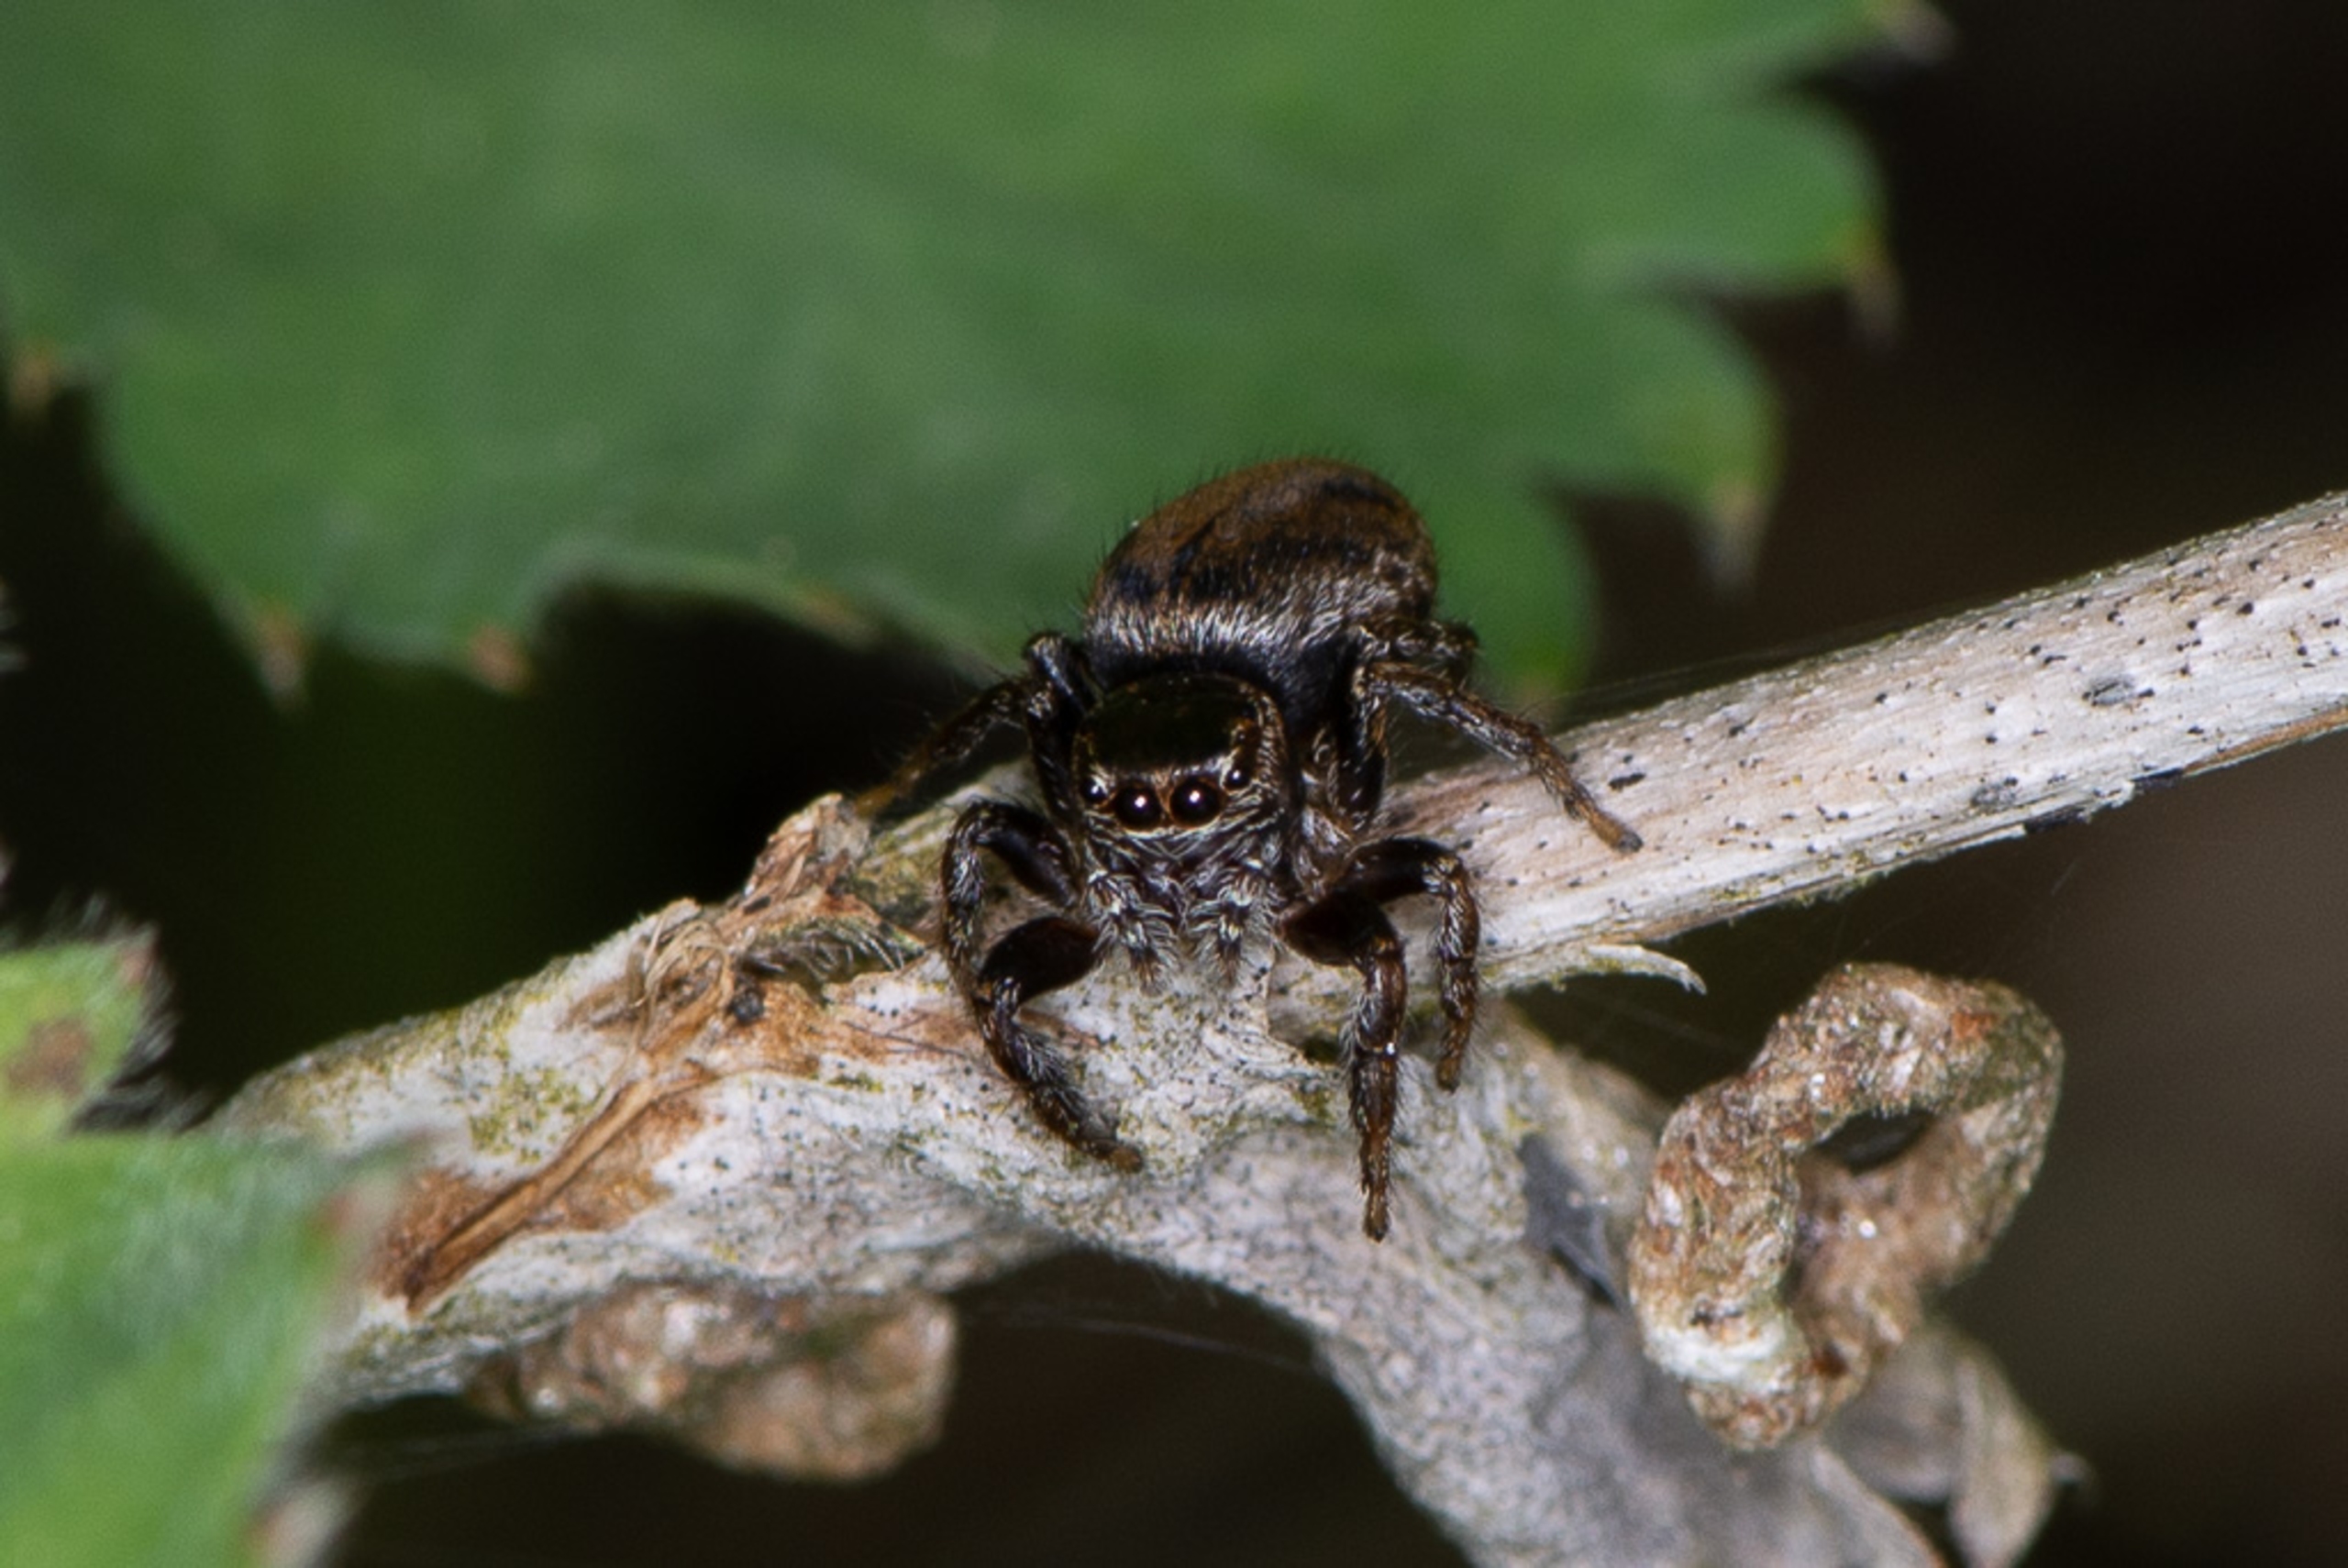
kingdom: Animalia
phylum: Arthropoda
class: Arachnida
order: Araneae
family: Salticidae
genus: Evarcha
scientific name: Evarcha falcata
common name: Broget springedderkop
